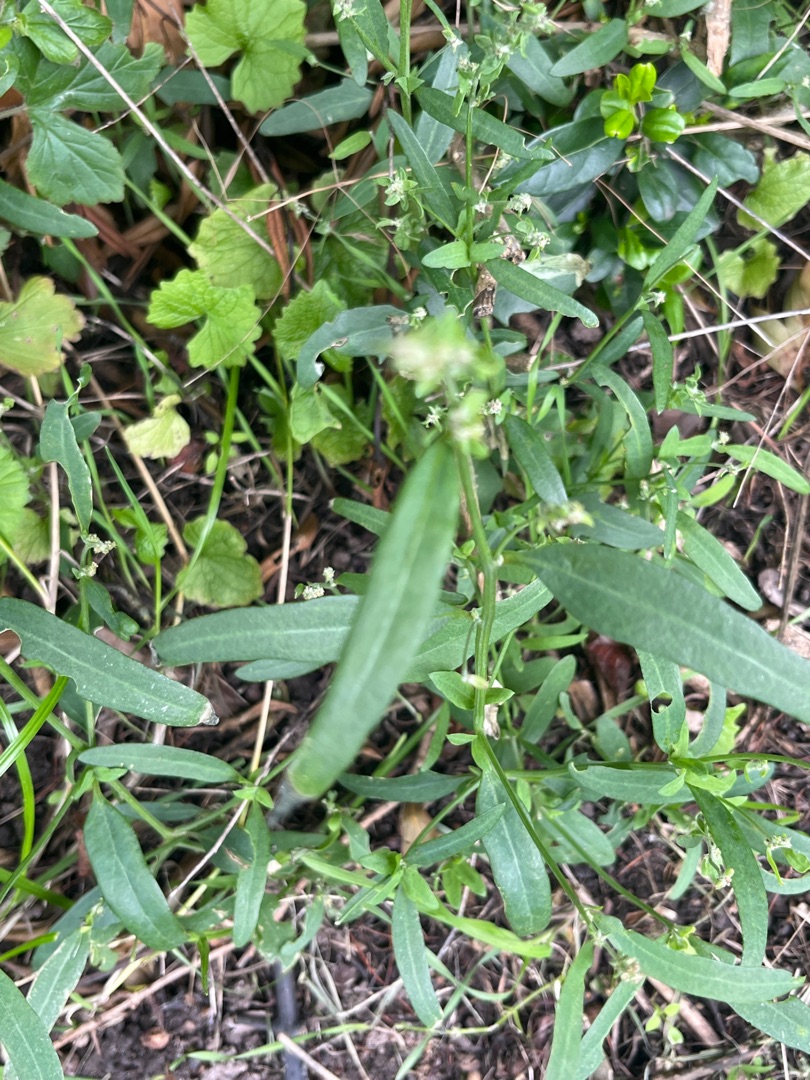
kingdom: Plantae
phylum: Tracheophyta
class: Magnoliopsida
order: Caryophyllales
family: Amaranthaceae
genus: Atriplex
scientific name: Atriplex patula
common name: Svine-mælde
